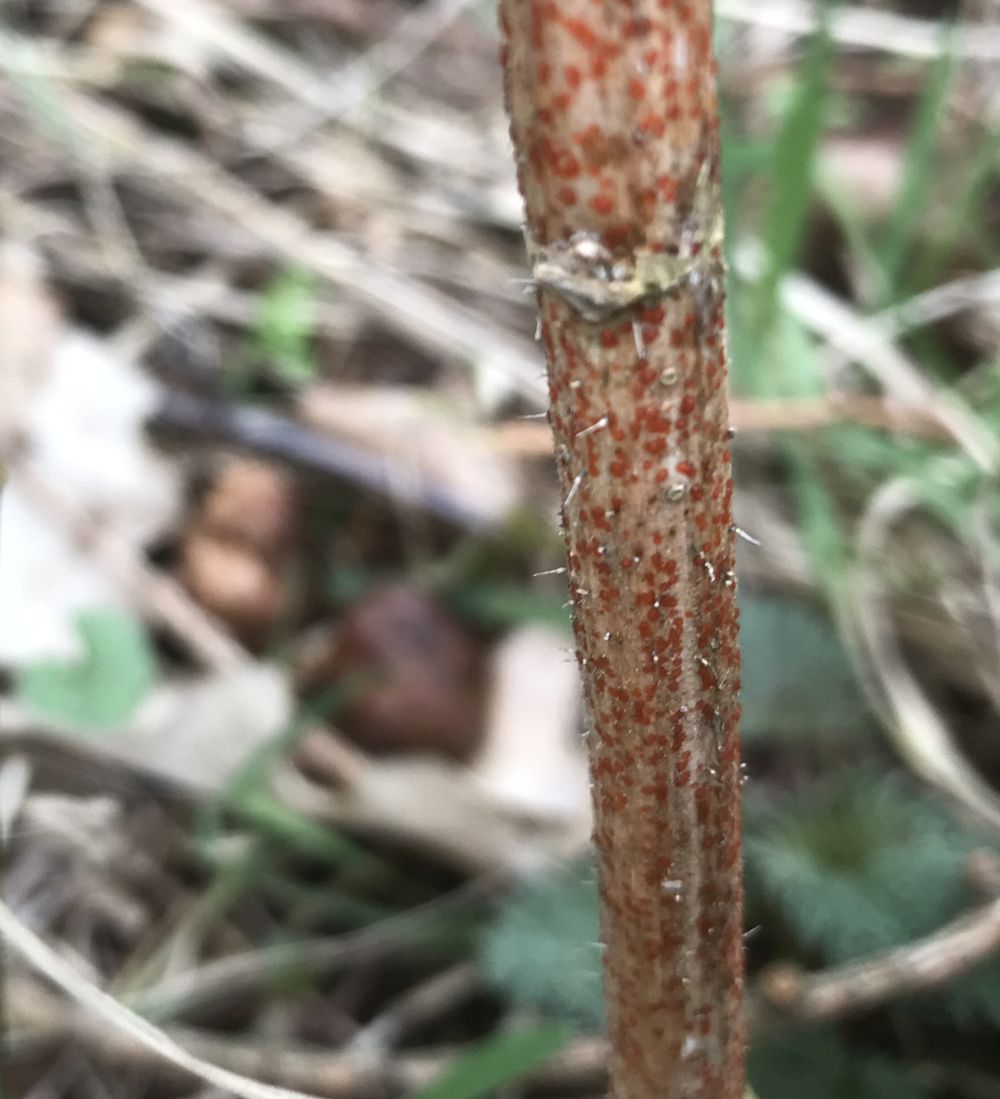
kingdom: Fungi
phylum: Ascomycota
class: Leotiomycetes
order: Helotiales
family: Calloriaceae
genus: Calloria
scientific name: Calloria urticae
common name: nælde-orangeskive
